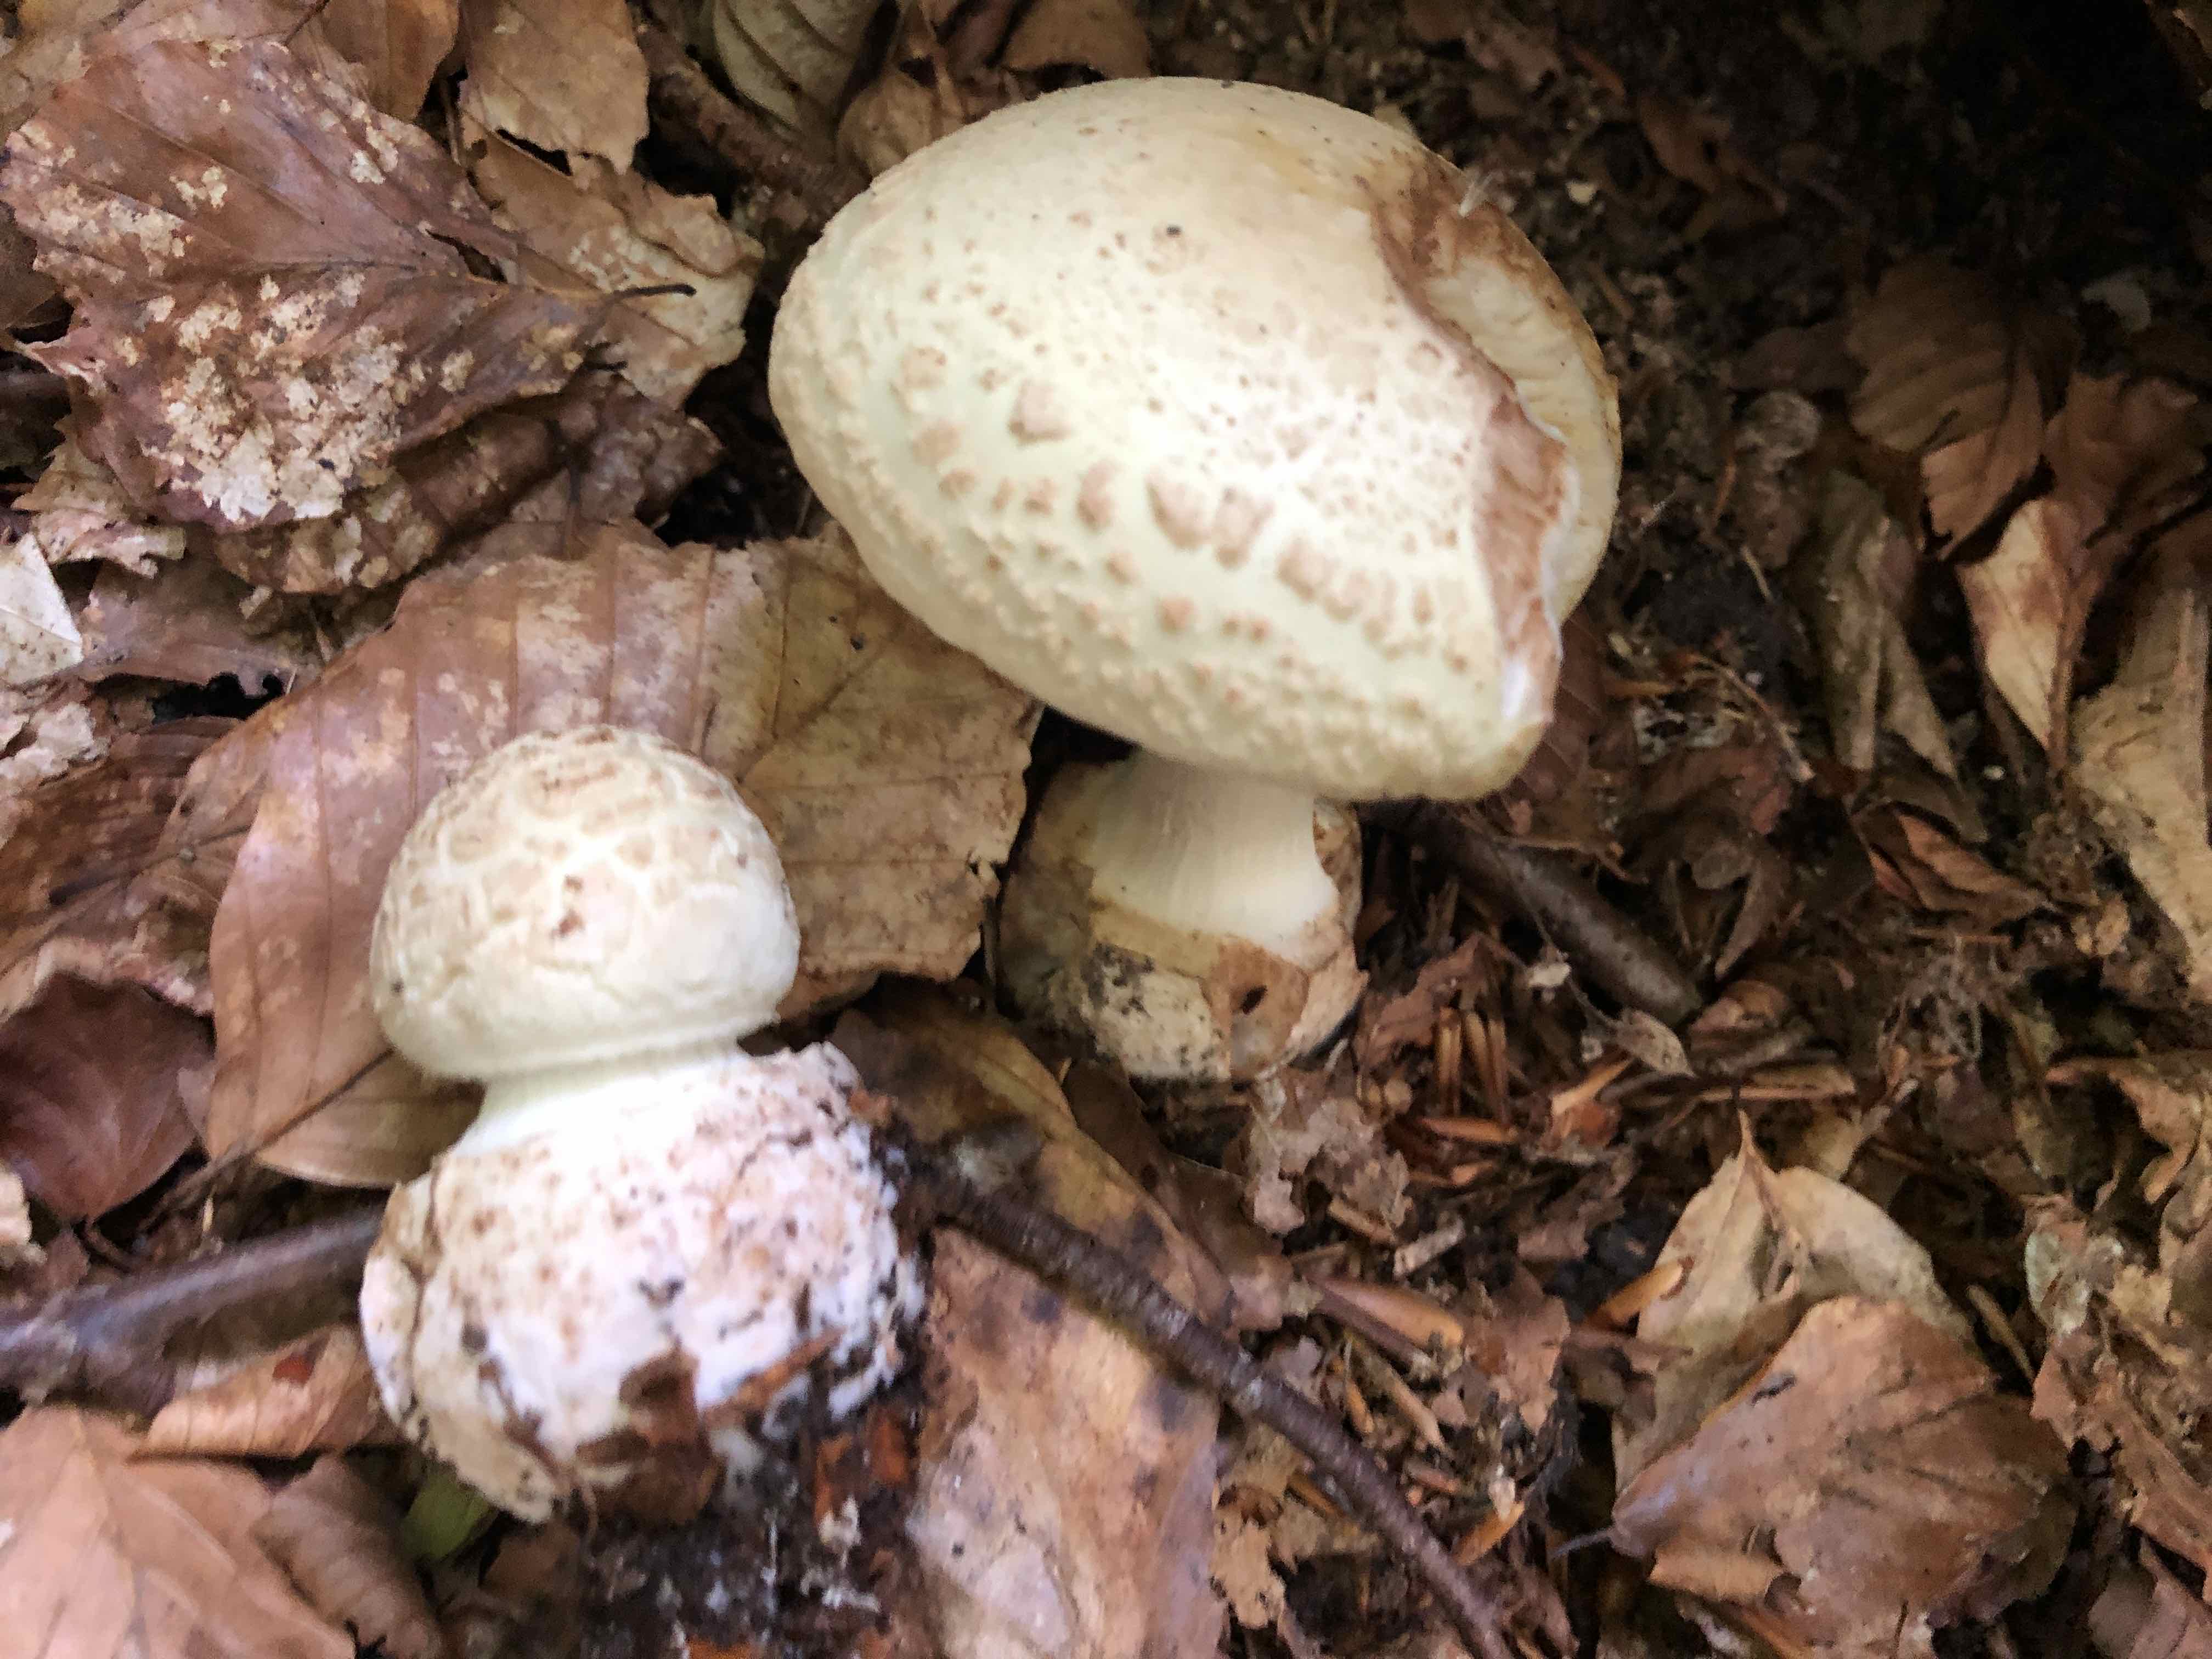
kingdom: Fungi
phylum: Basidiomycota
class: Agaricomycetes
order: Agaricales
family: Amanitaceae
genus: Amanita
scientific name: Amanita citrina
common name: kugleknoldet fluesvamp
